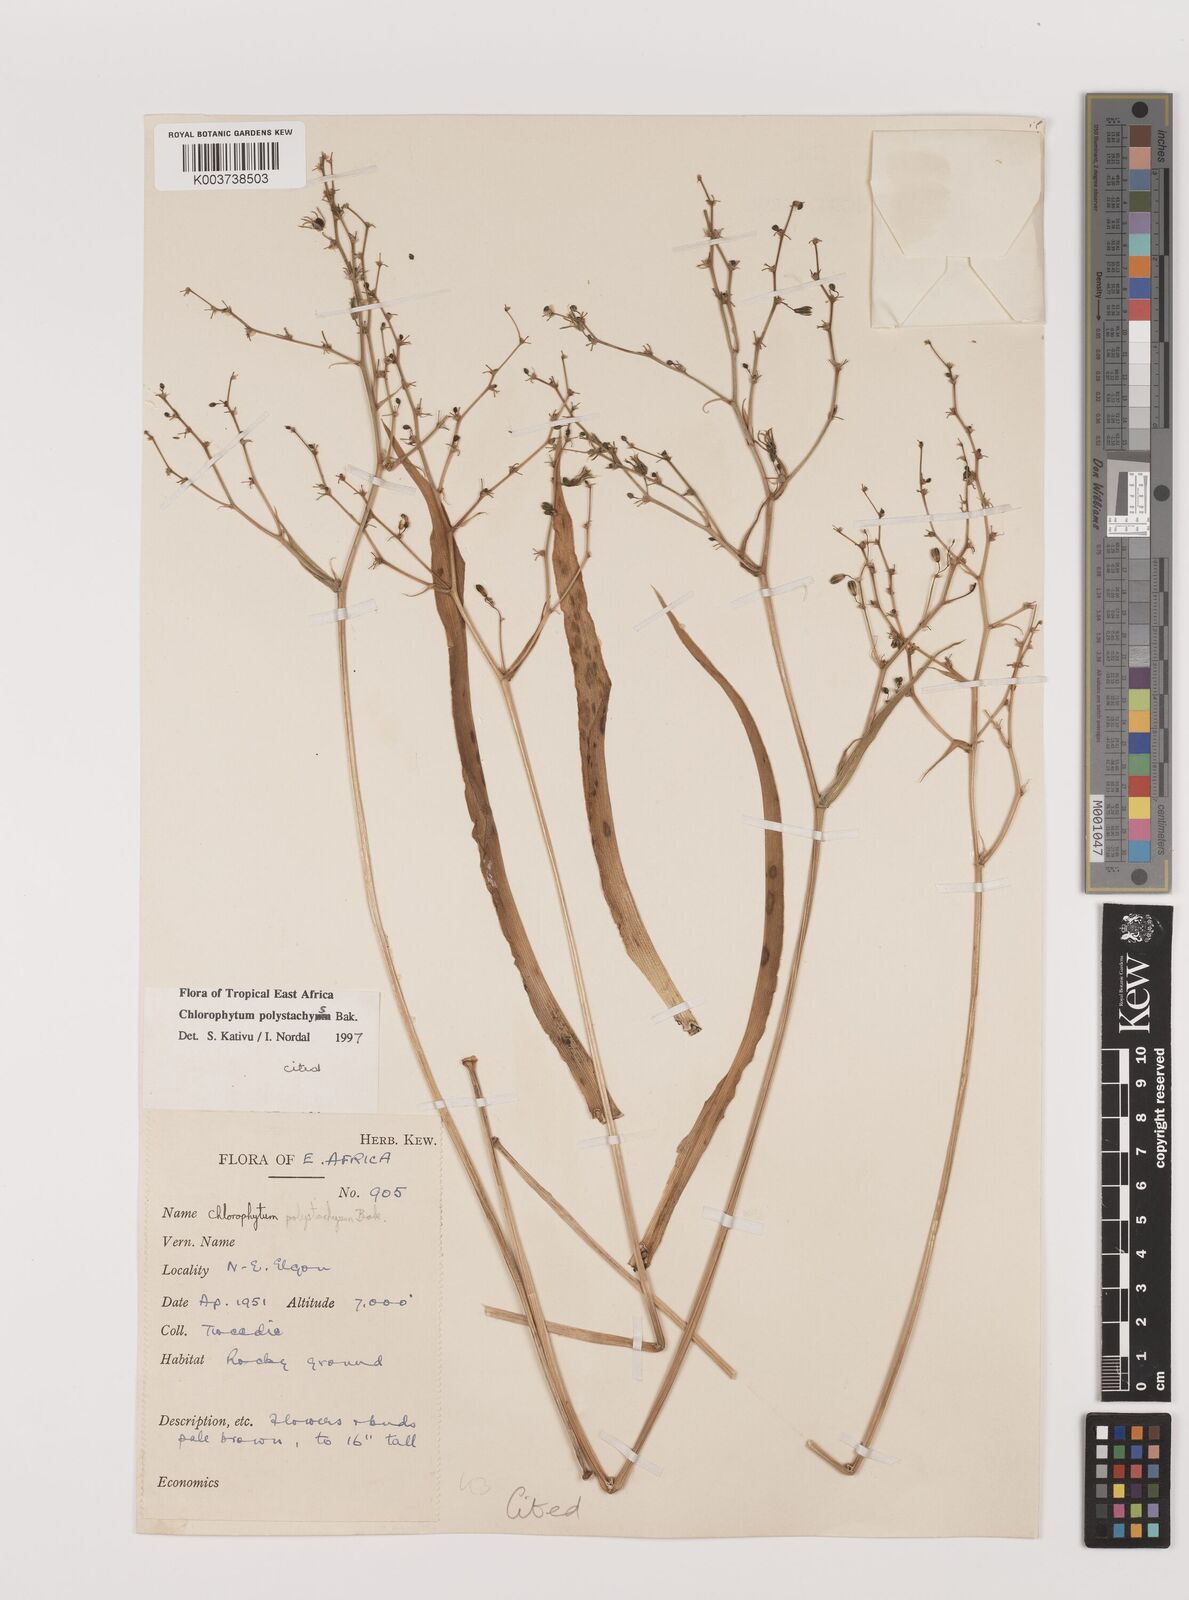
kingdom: Plantae
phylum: Tracheophyta
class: Liliopsida
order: Asparagales
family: Asparagaceae
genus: Chlorophytum
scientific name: Chlorophytum polystachys
